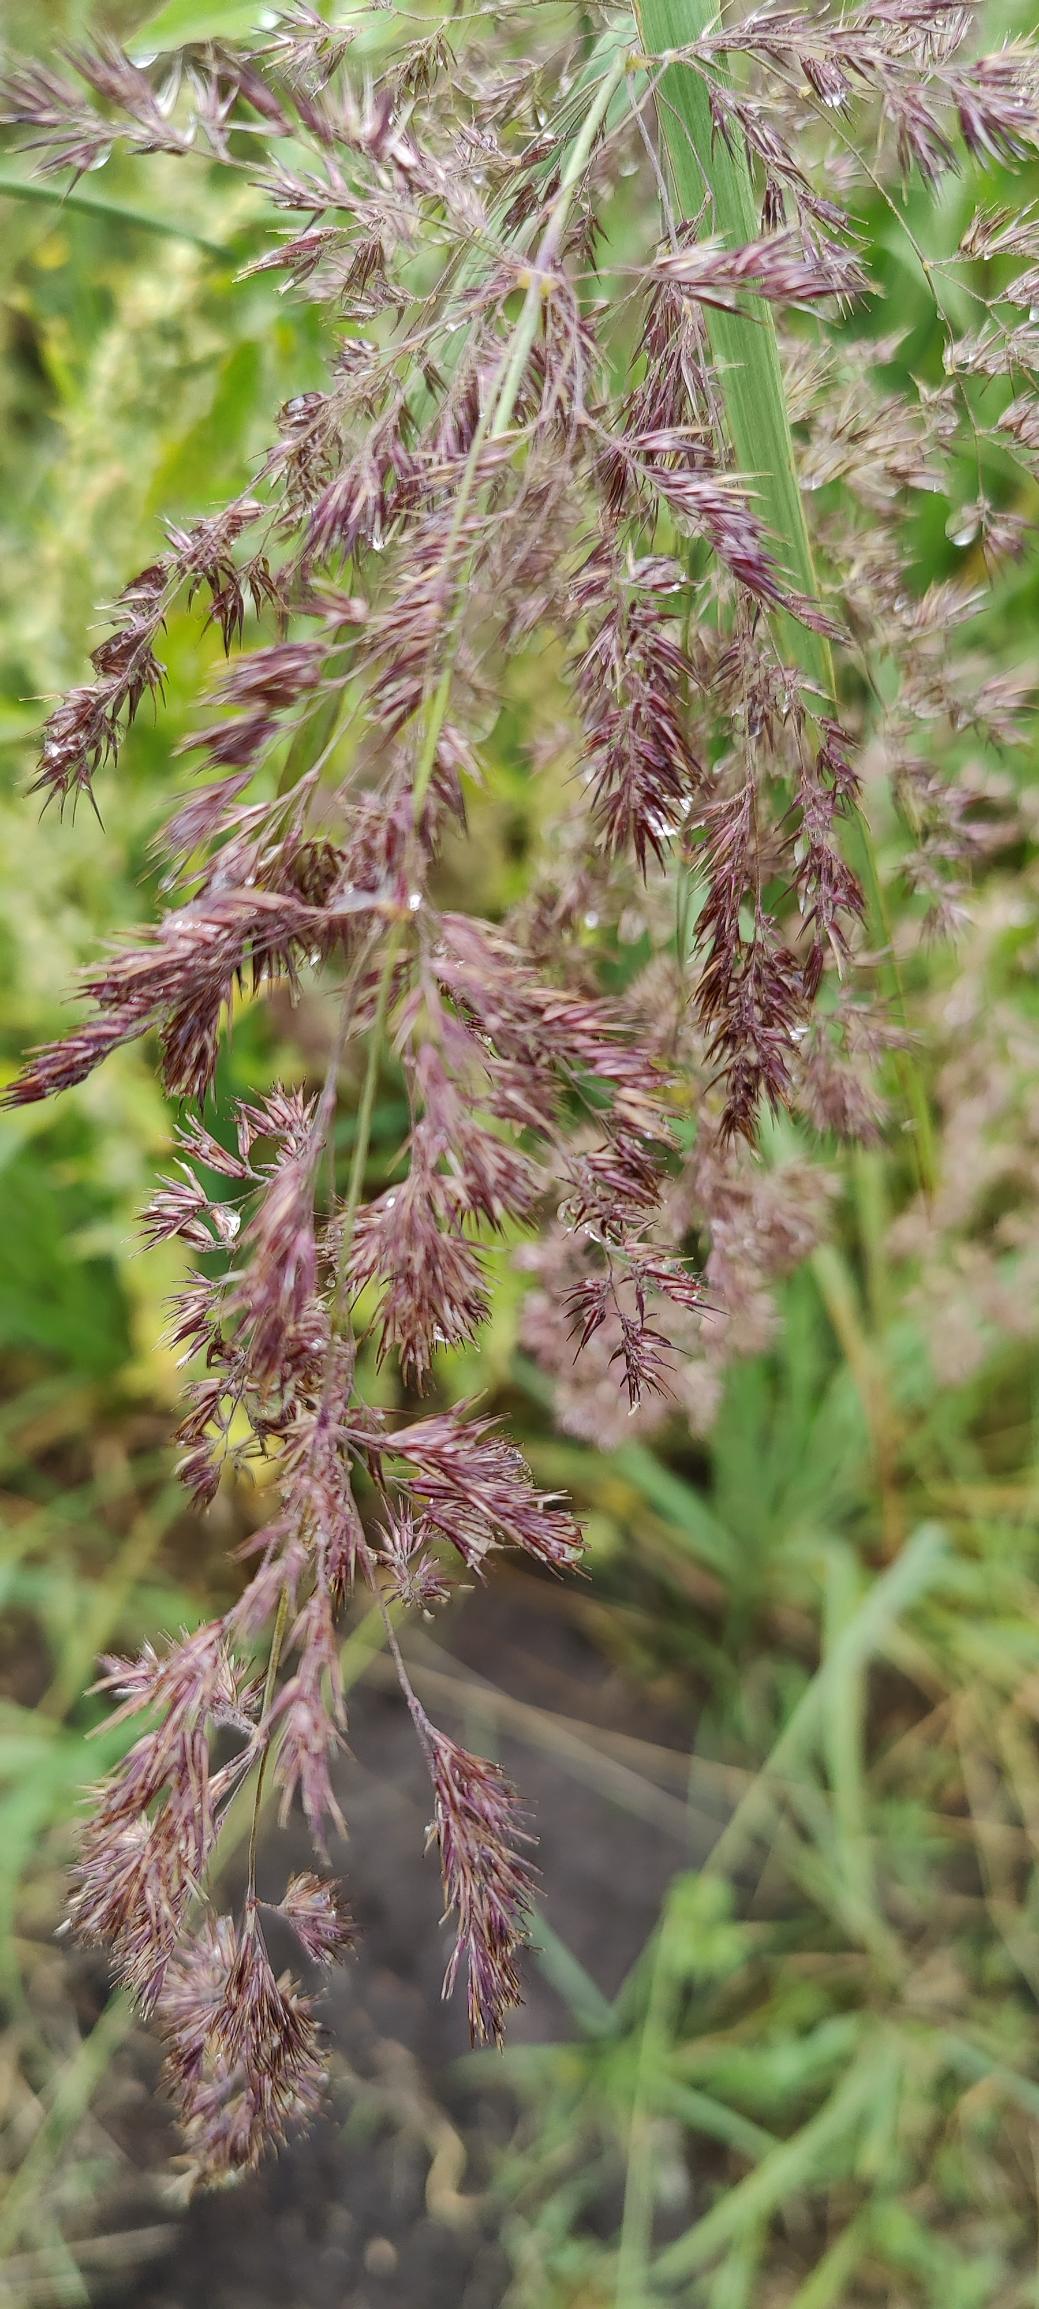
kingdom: Plantae
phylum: Tracheophyta
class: Liliopsida
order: Poales
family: Poaceae
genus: Phragmites
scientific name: Phragmites australis
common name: Tagrør
